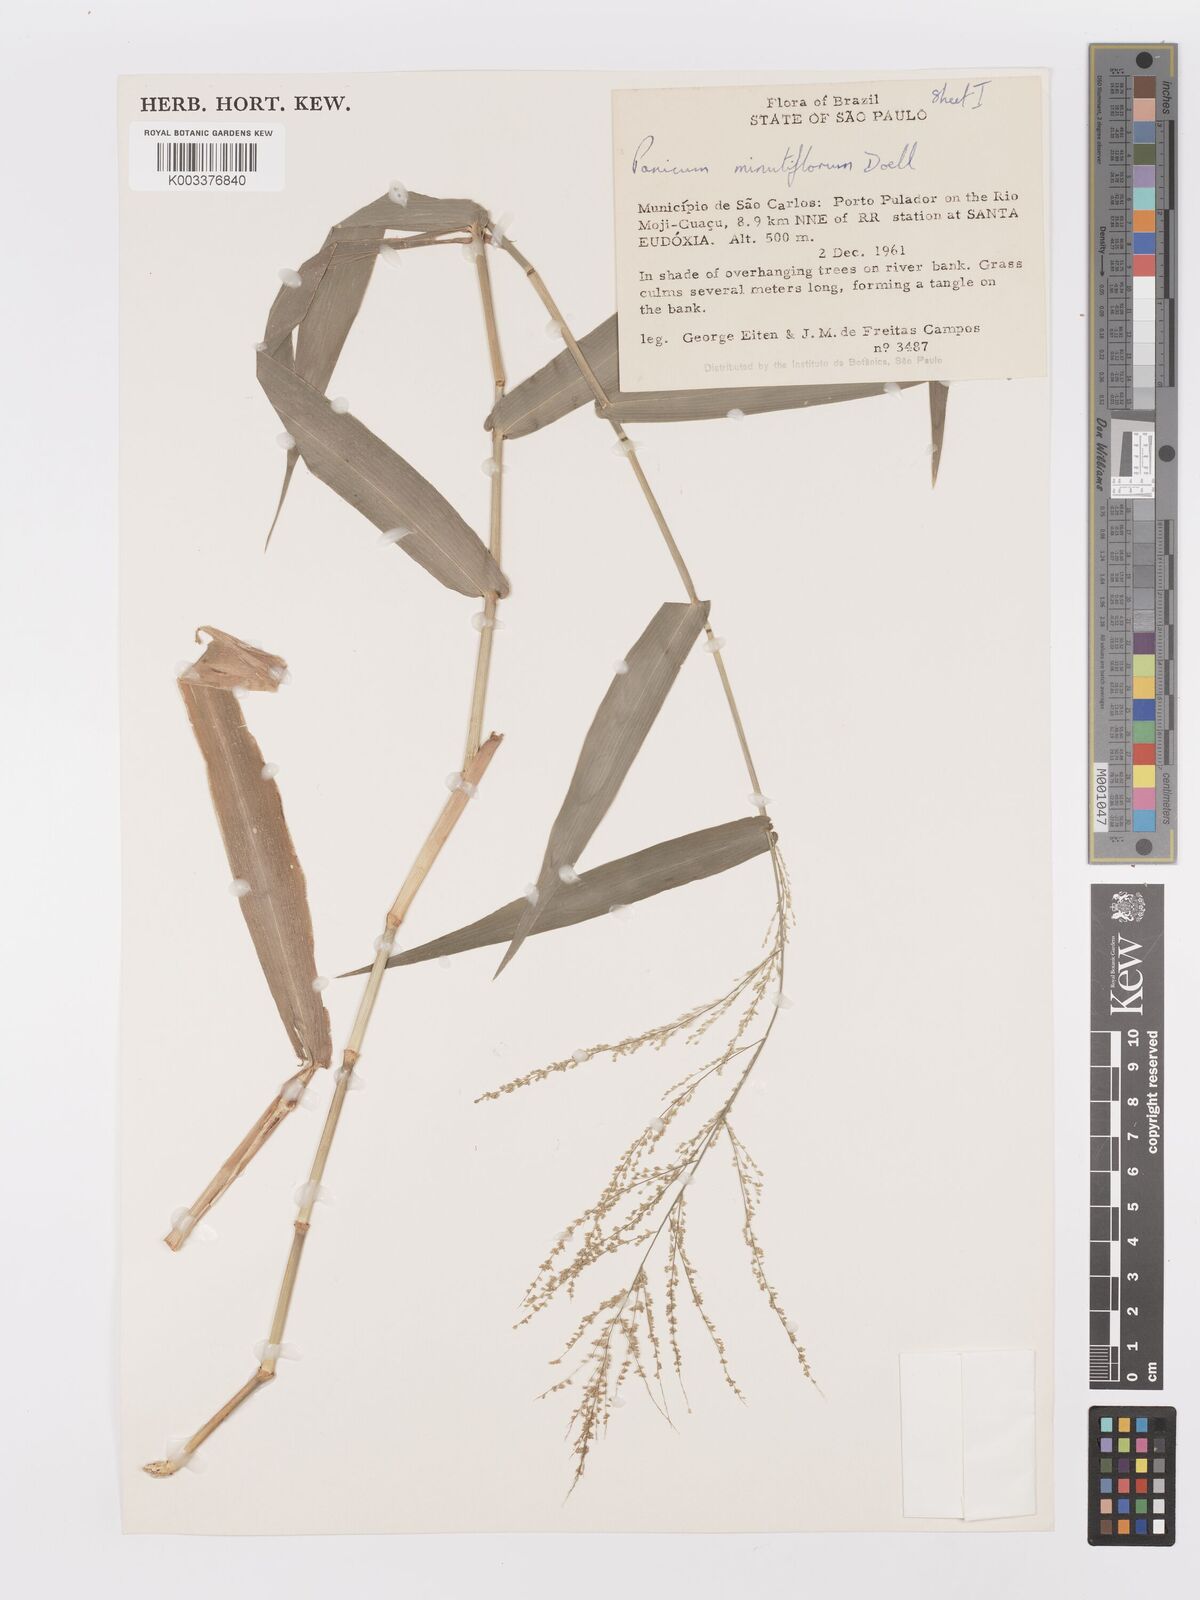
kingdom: Plantae
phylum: Tracheophyta
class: Liliopsida
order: Poales
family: Poaceae
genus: Rugoloa
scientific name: Rugoloa hylaeica
